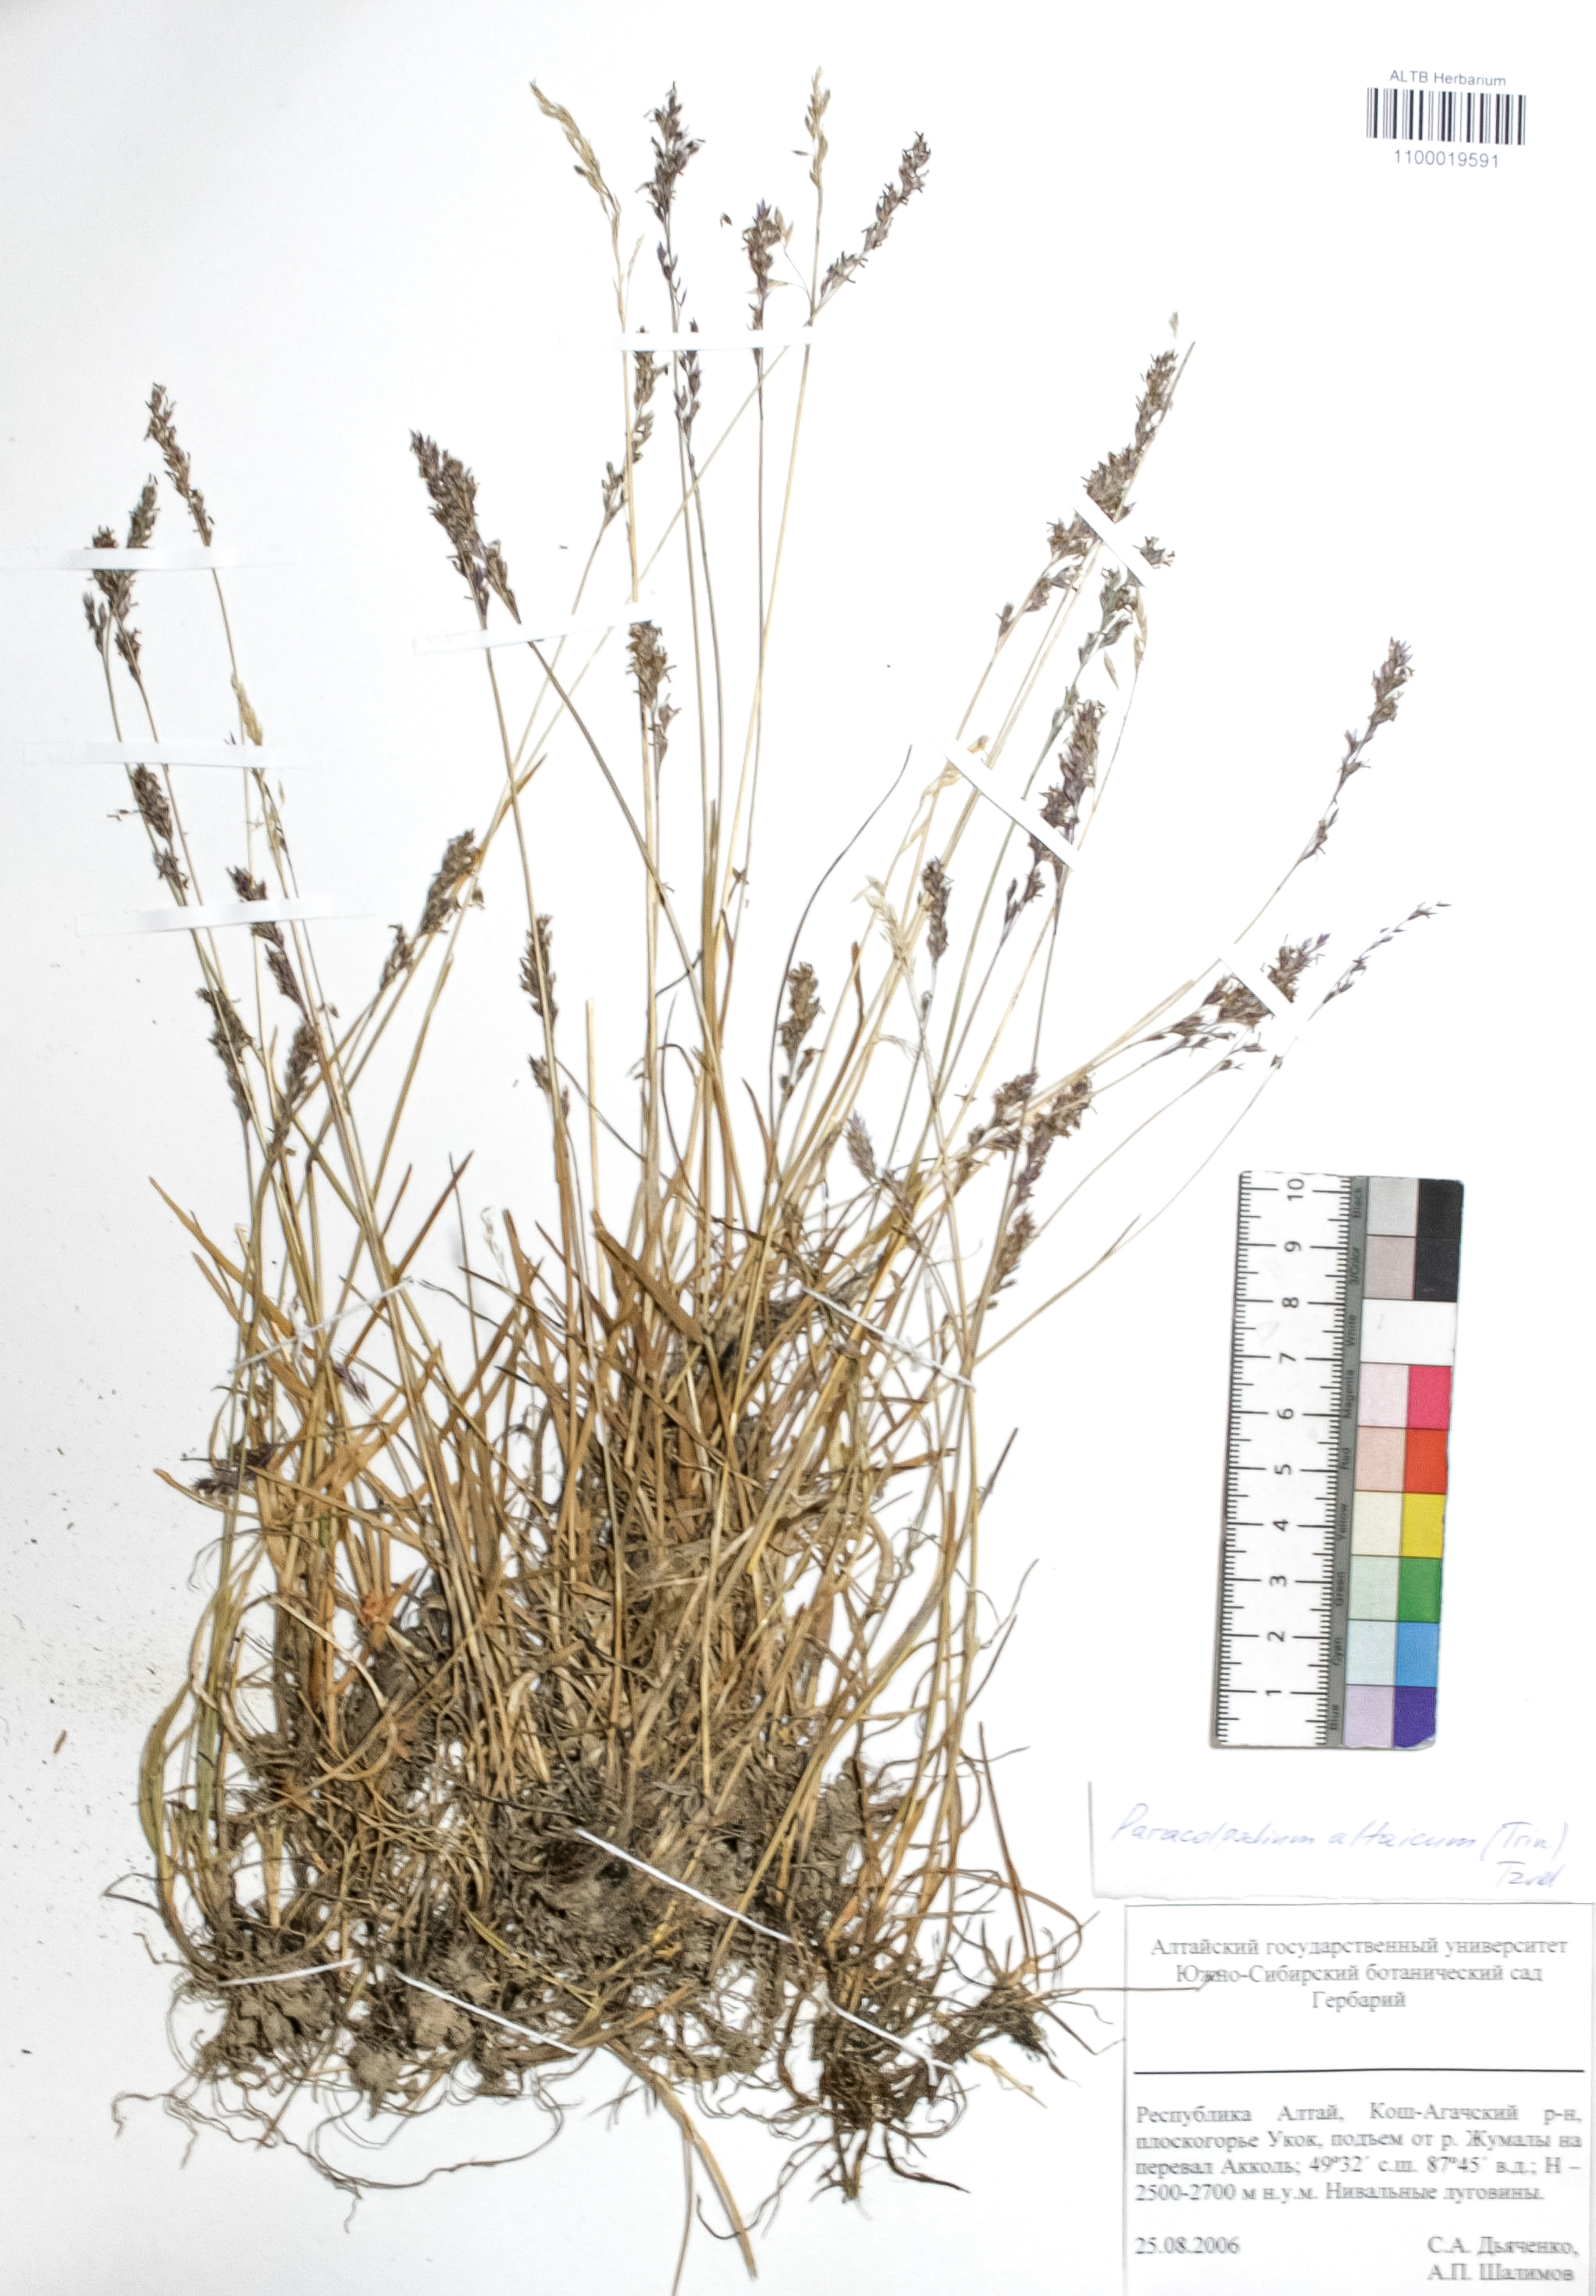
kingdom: Plantae
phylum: Tracheophyta
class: Liliopsida
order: Poales
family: Poaceae
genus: Paracolpodium
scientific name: Paracolpodium altaicum
